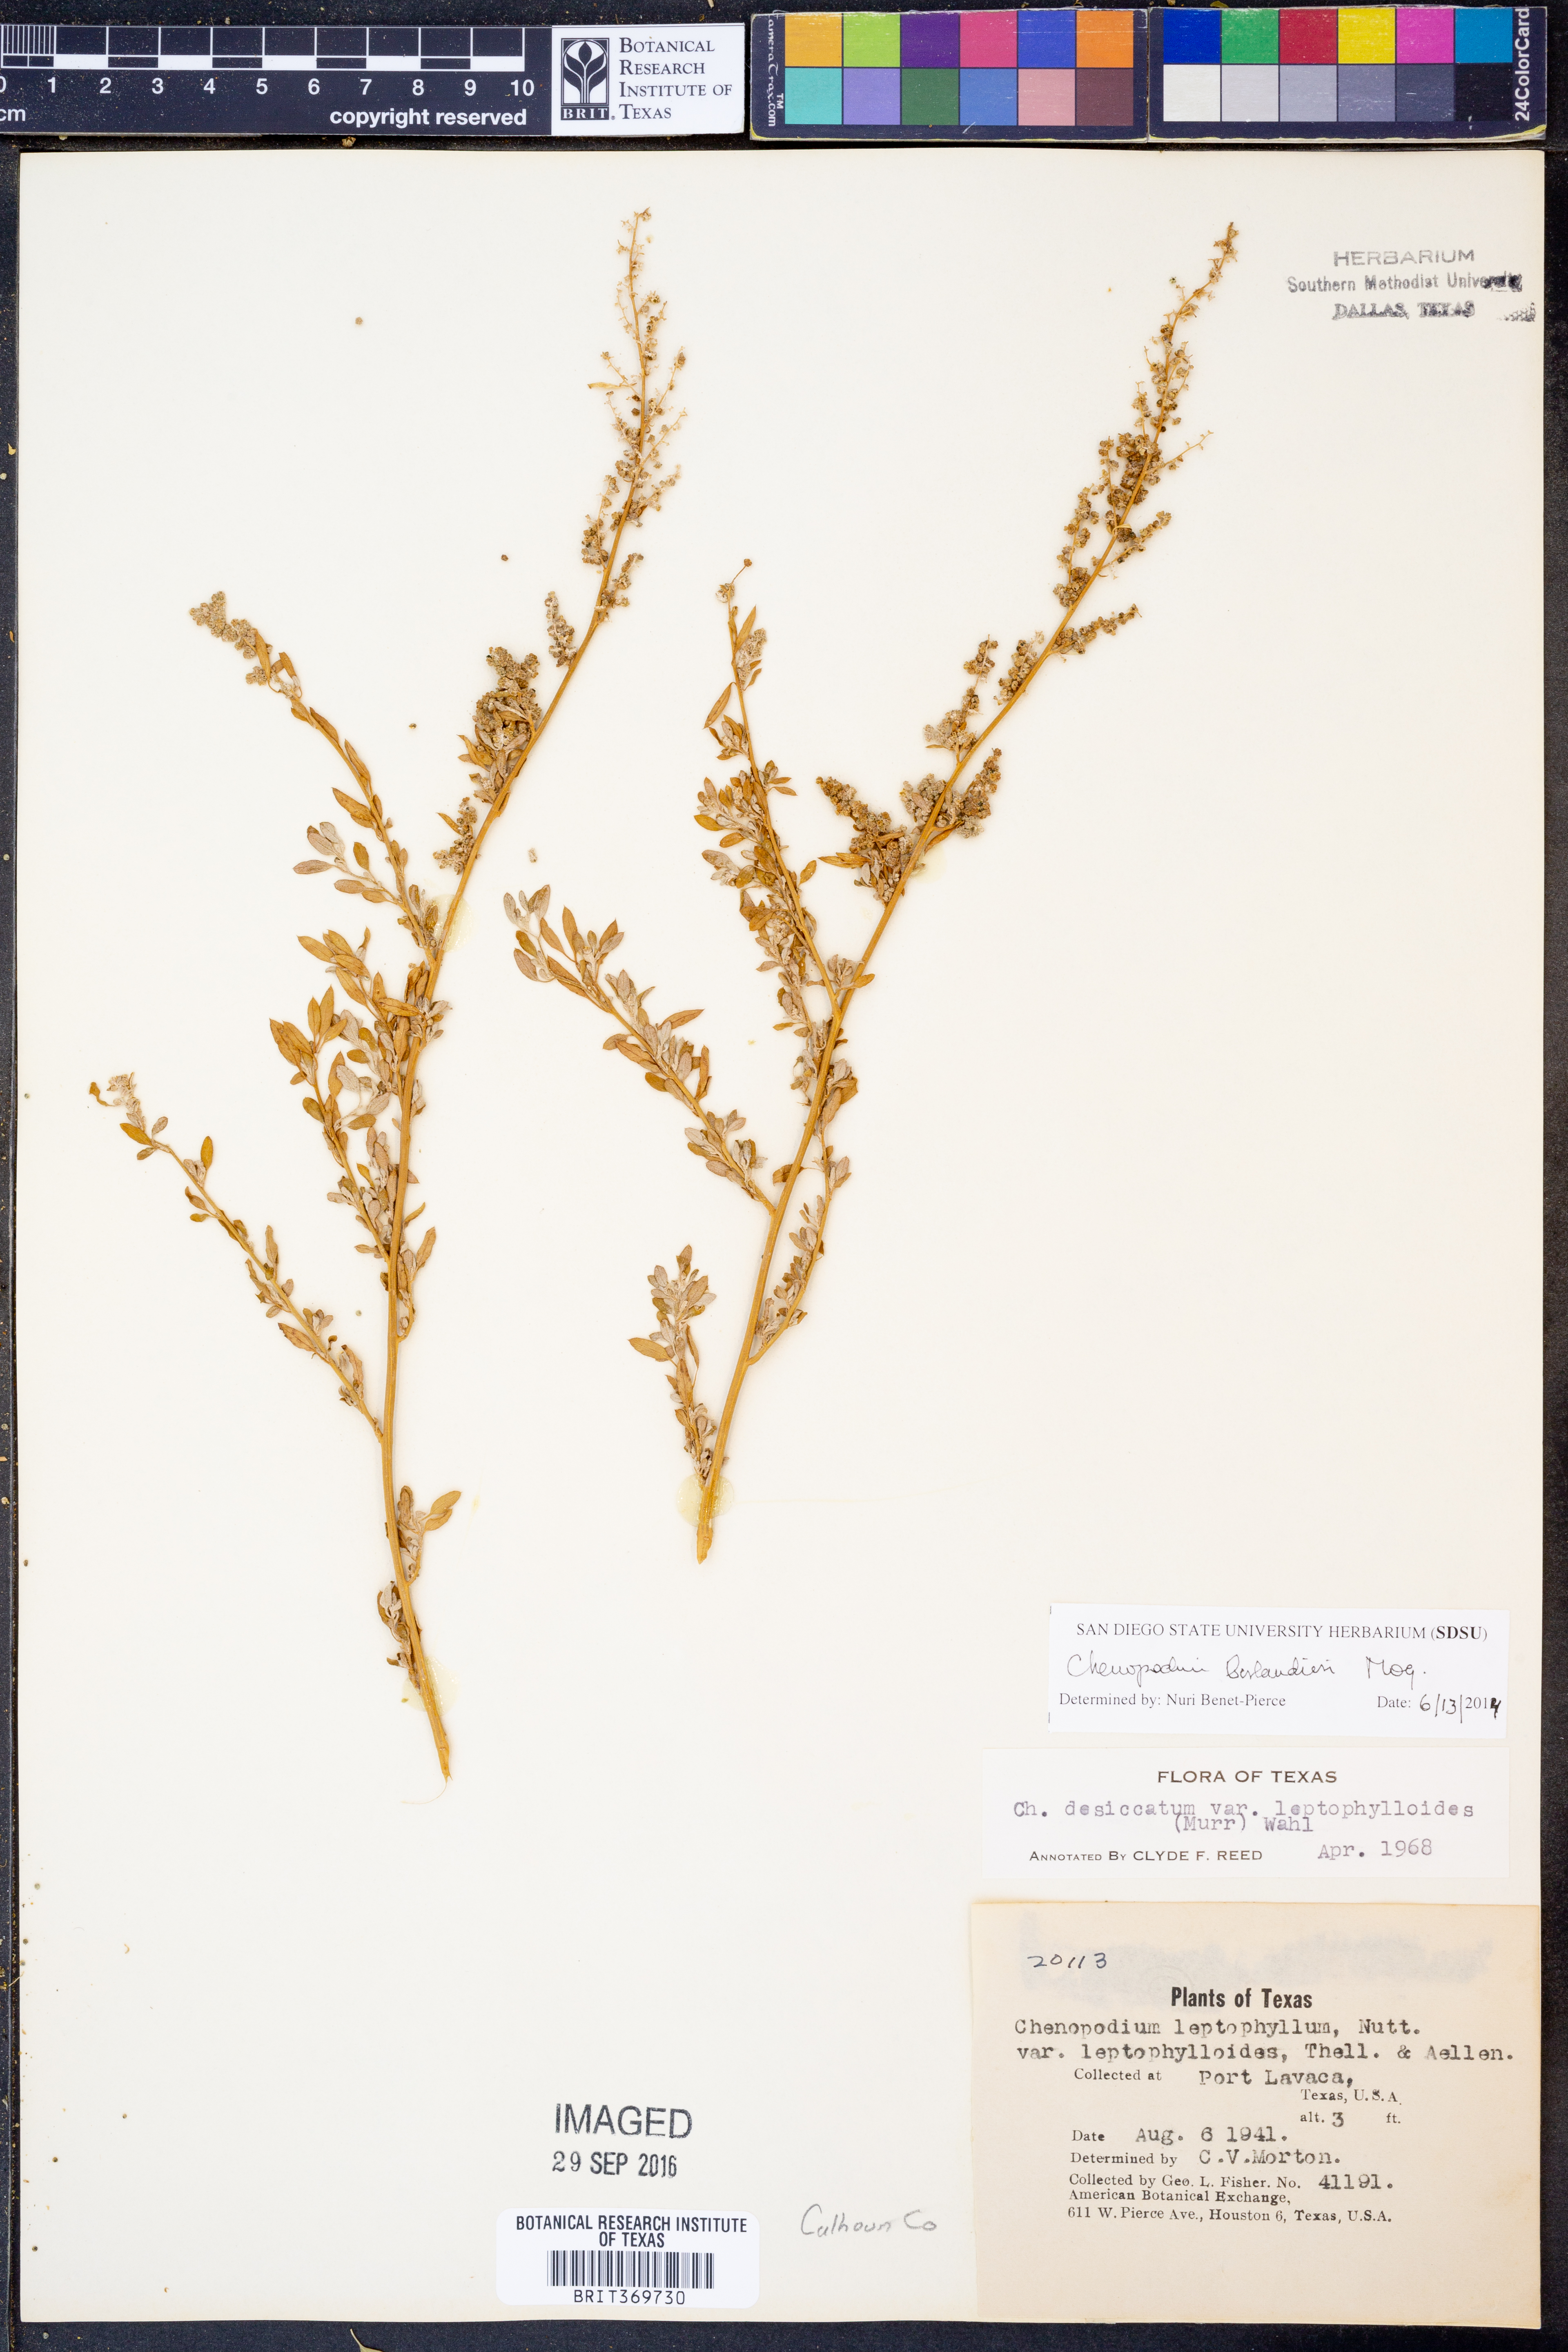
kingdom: Plantae
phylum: Tracheophyta
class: Magnoliopsida
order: Caryophyllales
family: Amaranthaceae
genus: Chenopodium
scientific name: Chenopodium berlandieri
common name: Pit-seed goosefoot
